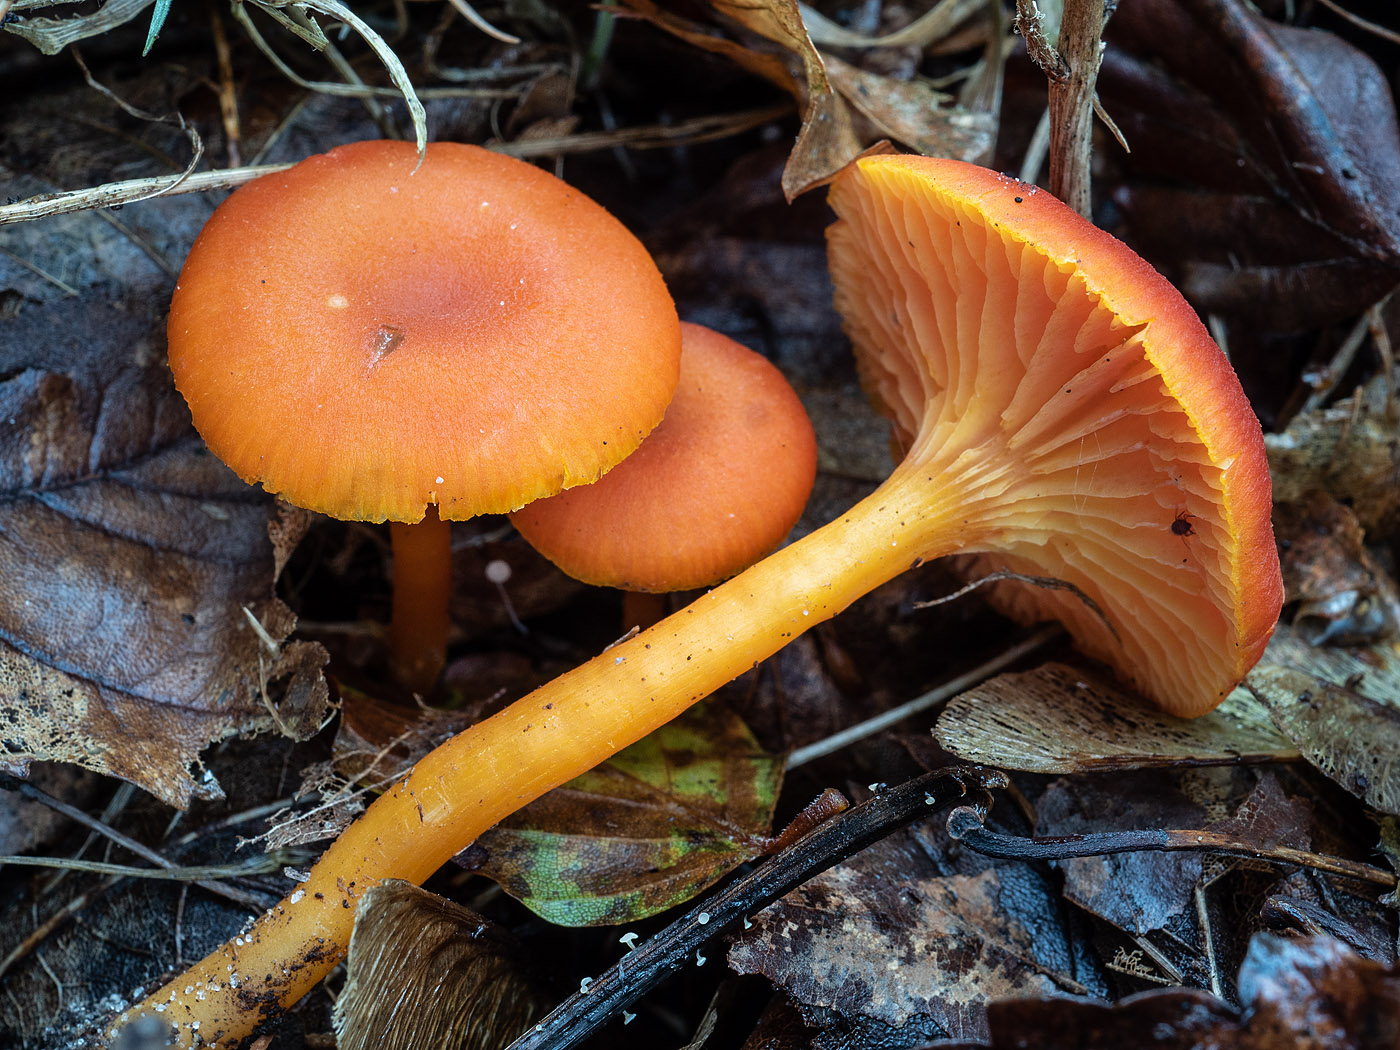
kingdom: Fungi
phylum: Basidiomycota
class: Agaricomycetes
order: Agaricales
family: Hygrophoraceae
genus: Hygrocybe
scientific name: Hygrocybe miniata
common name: mønje-vokshat
